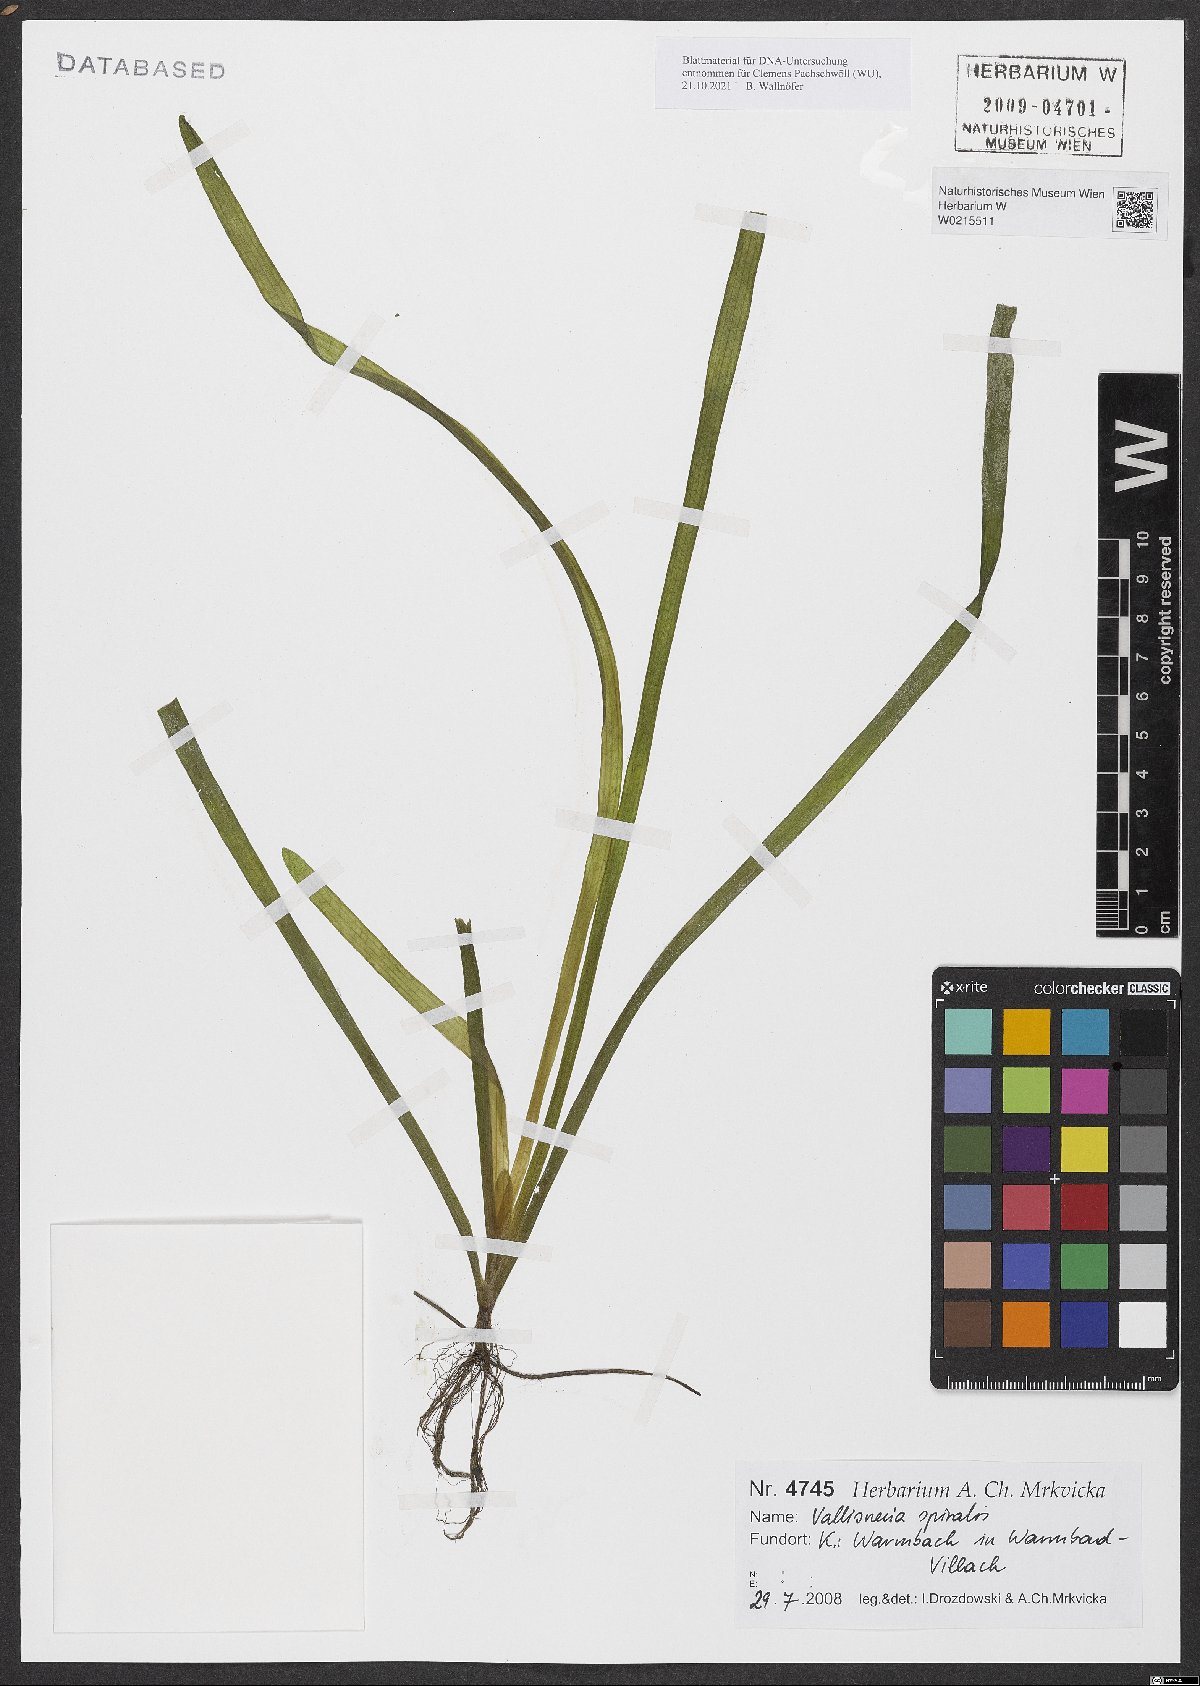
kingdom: Plantae
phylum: Tracheophyta
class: Liliopsida
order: Alismatales
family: Hydrocharitaceae
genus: Vallisneria
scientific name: Vallisneria spiralis
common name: Tapegrass
